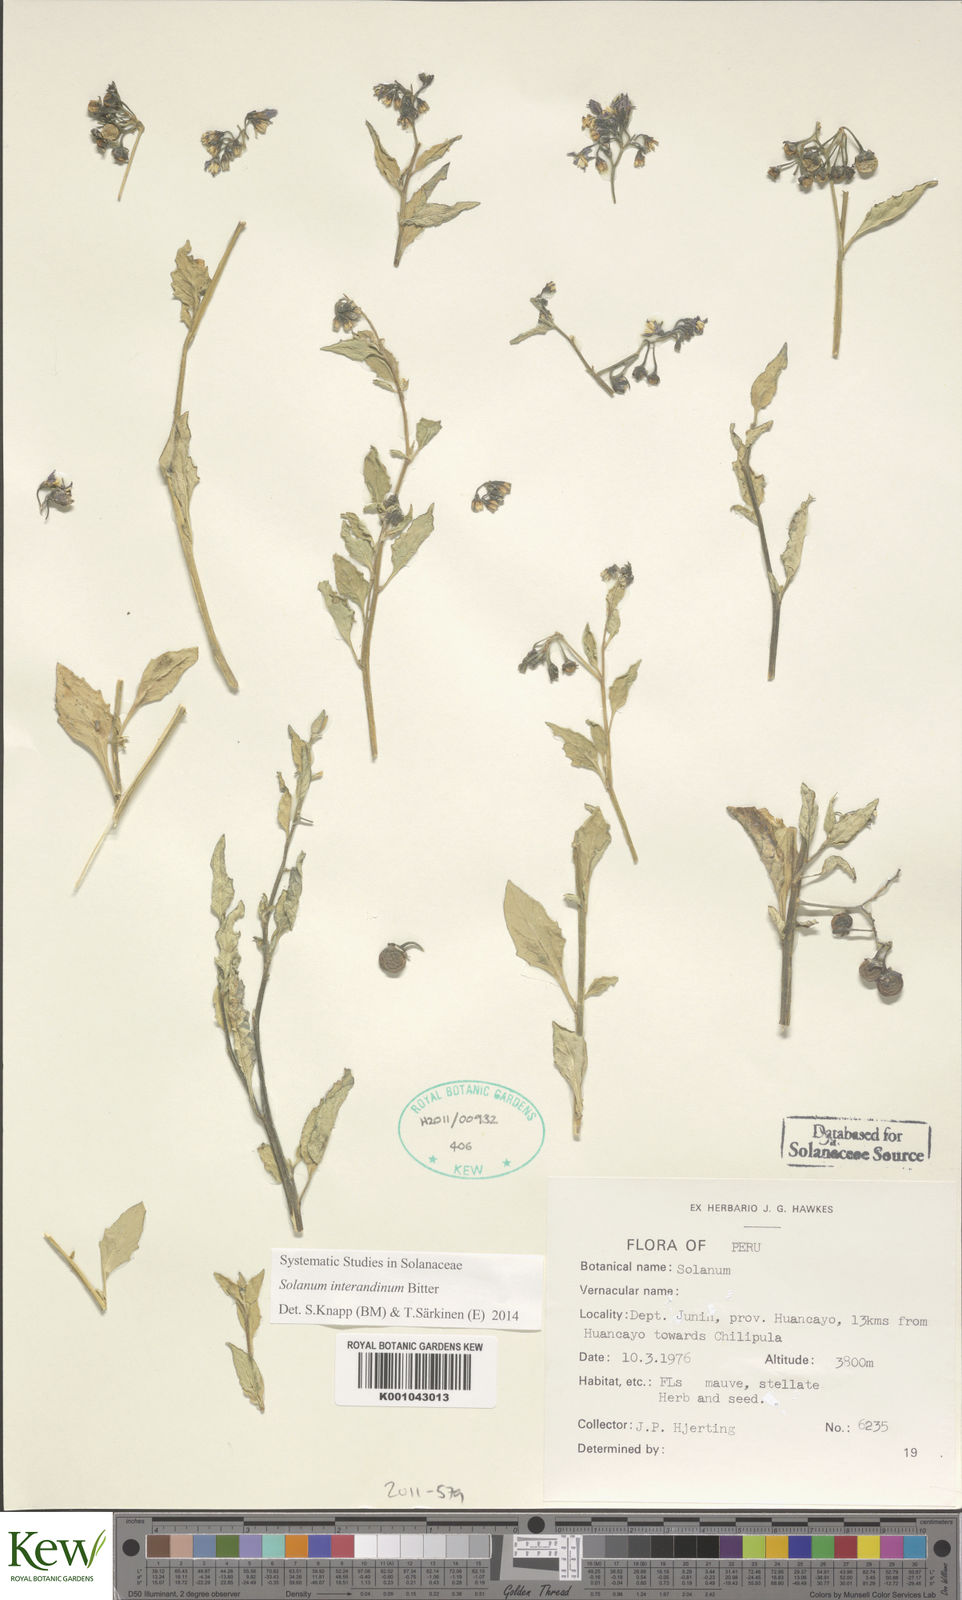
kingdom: Plantae
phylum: Tracheophyta
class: Magnoliopsida
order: Solanales
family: Solanaceae
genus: Solanum
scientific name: Solanum interandinum
